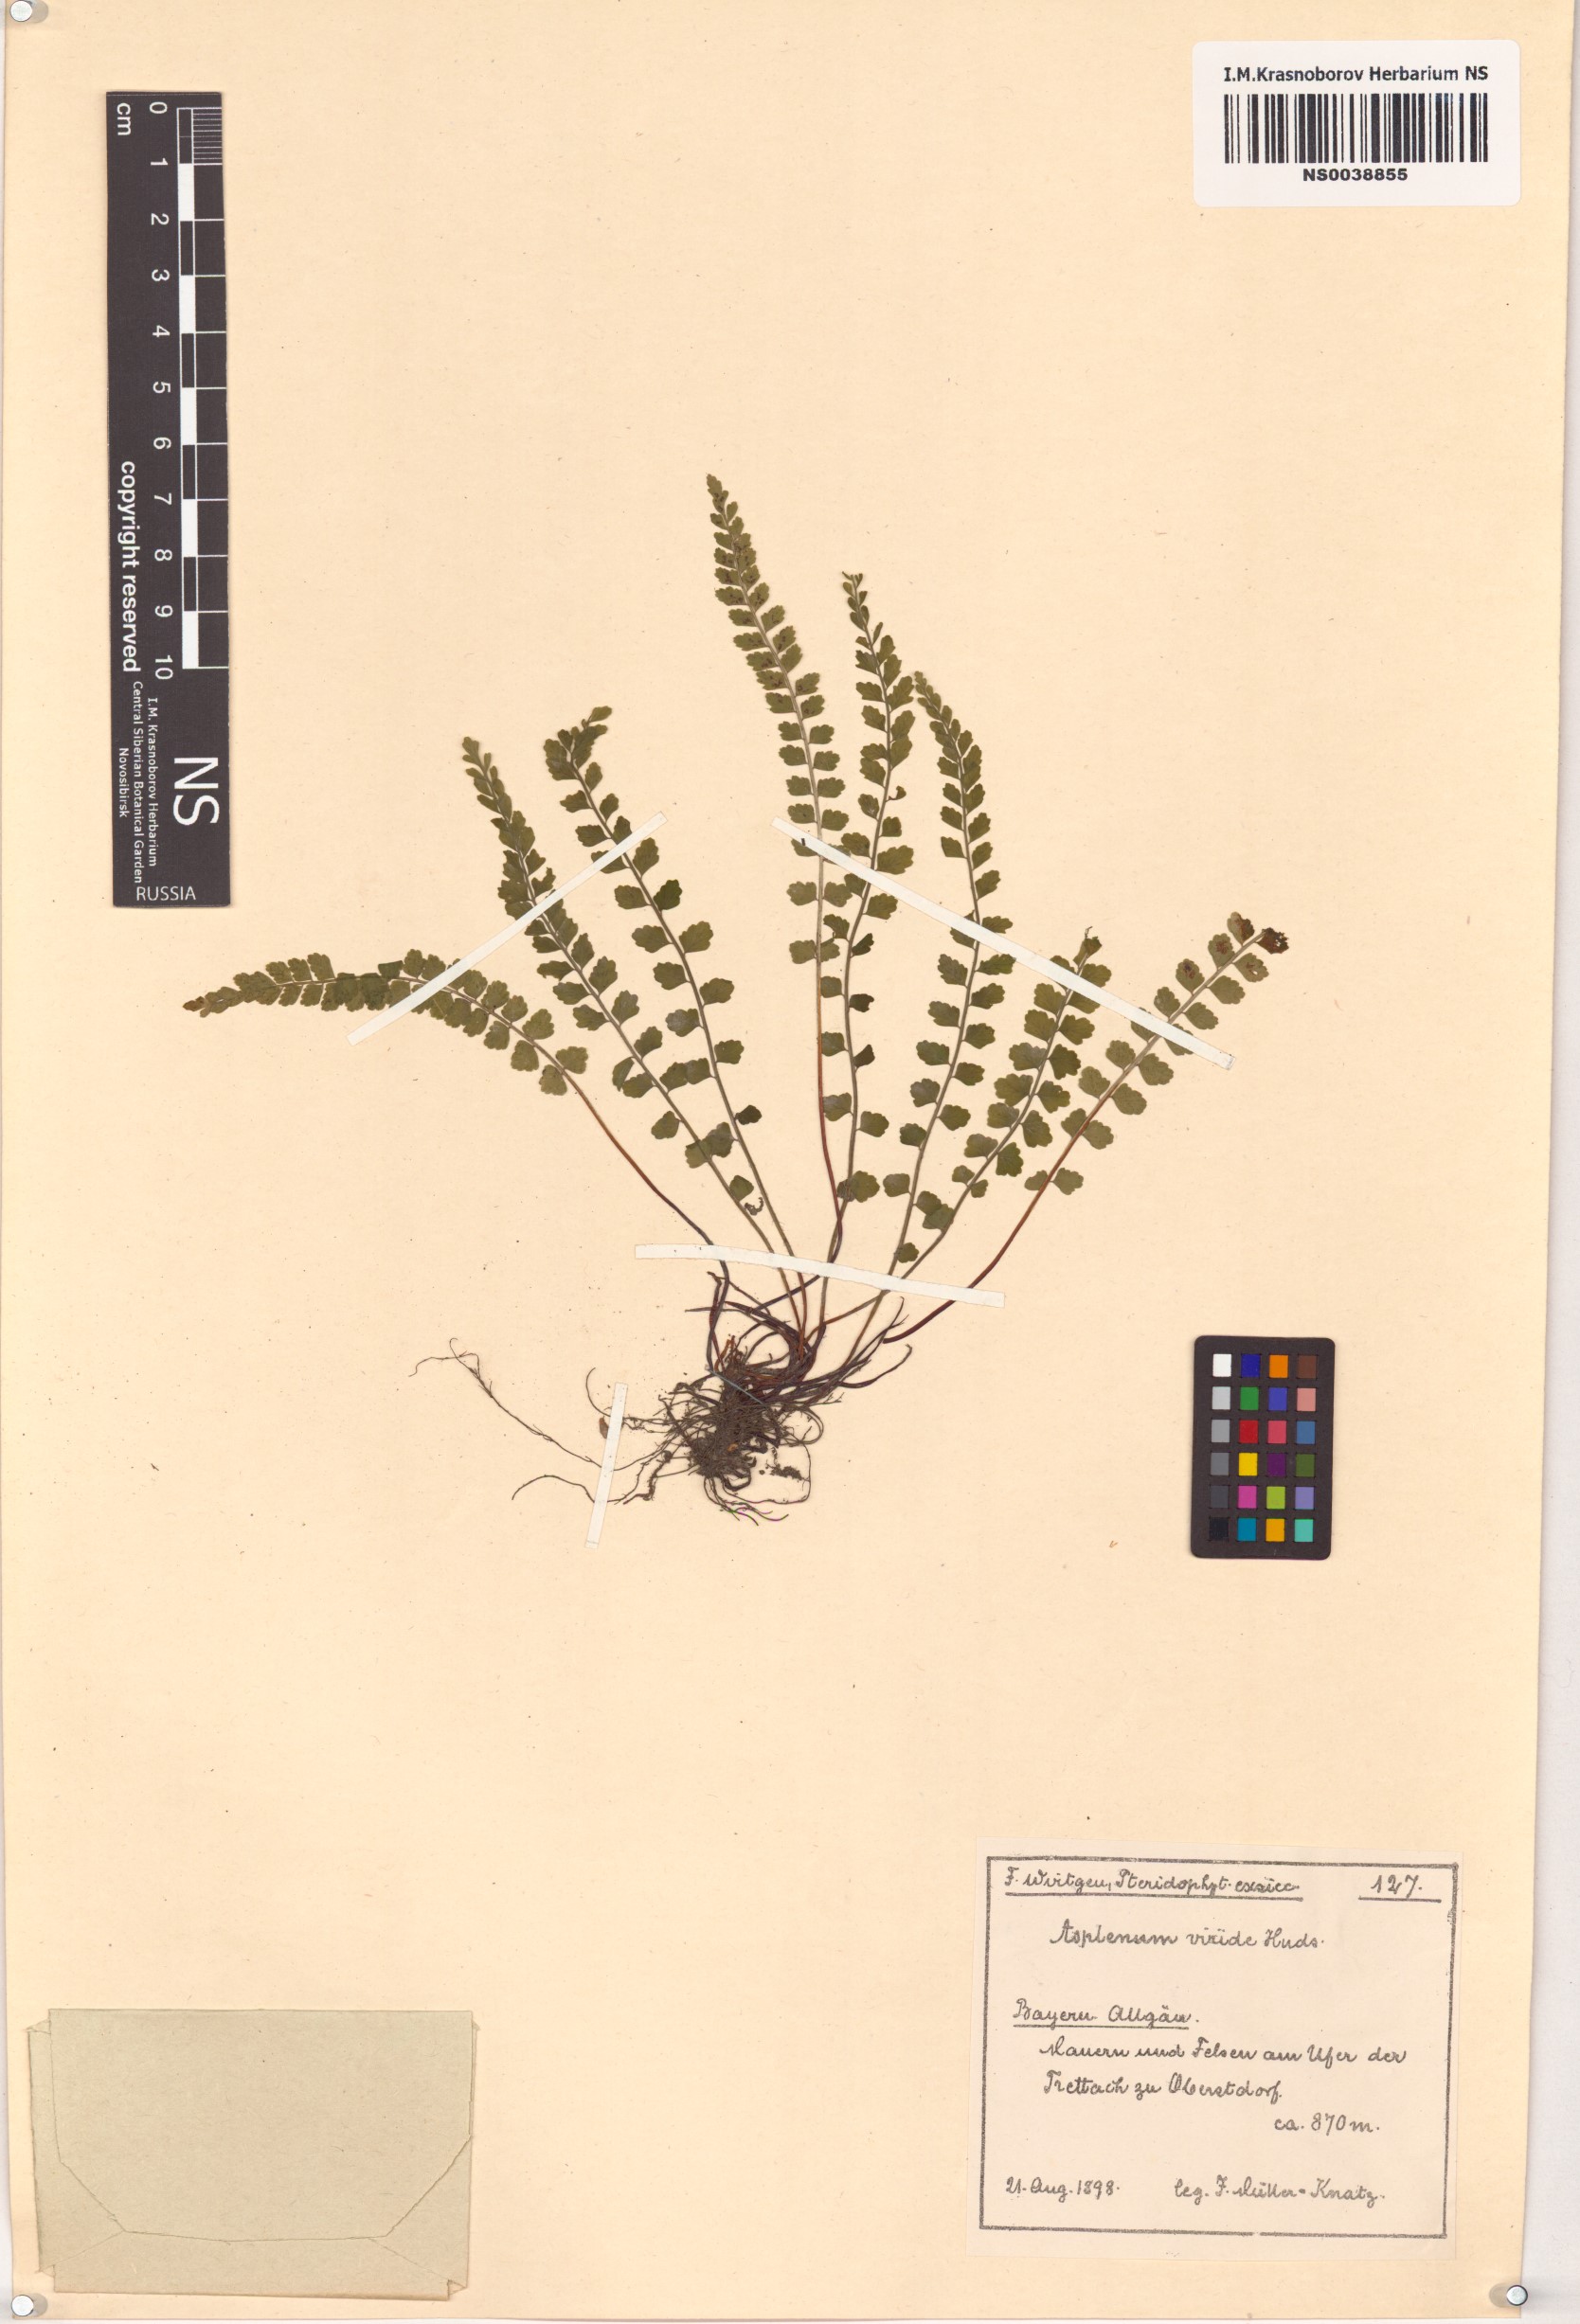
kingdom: Plantae
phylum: Tracheophyta
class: Polypodiopsida
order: Polypodiales
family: Aspleniaceae
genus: Asplenium
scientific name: Asplenium viride
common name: Green spleenwort
